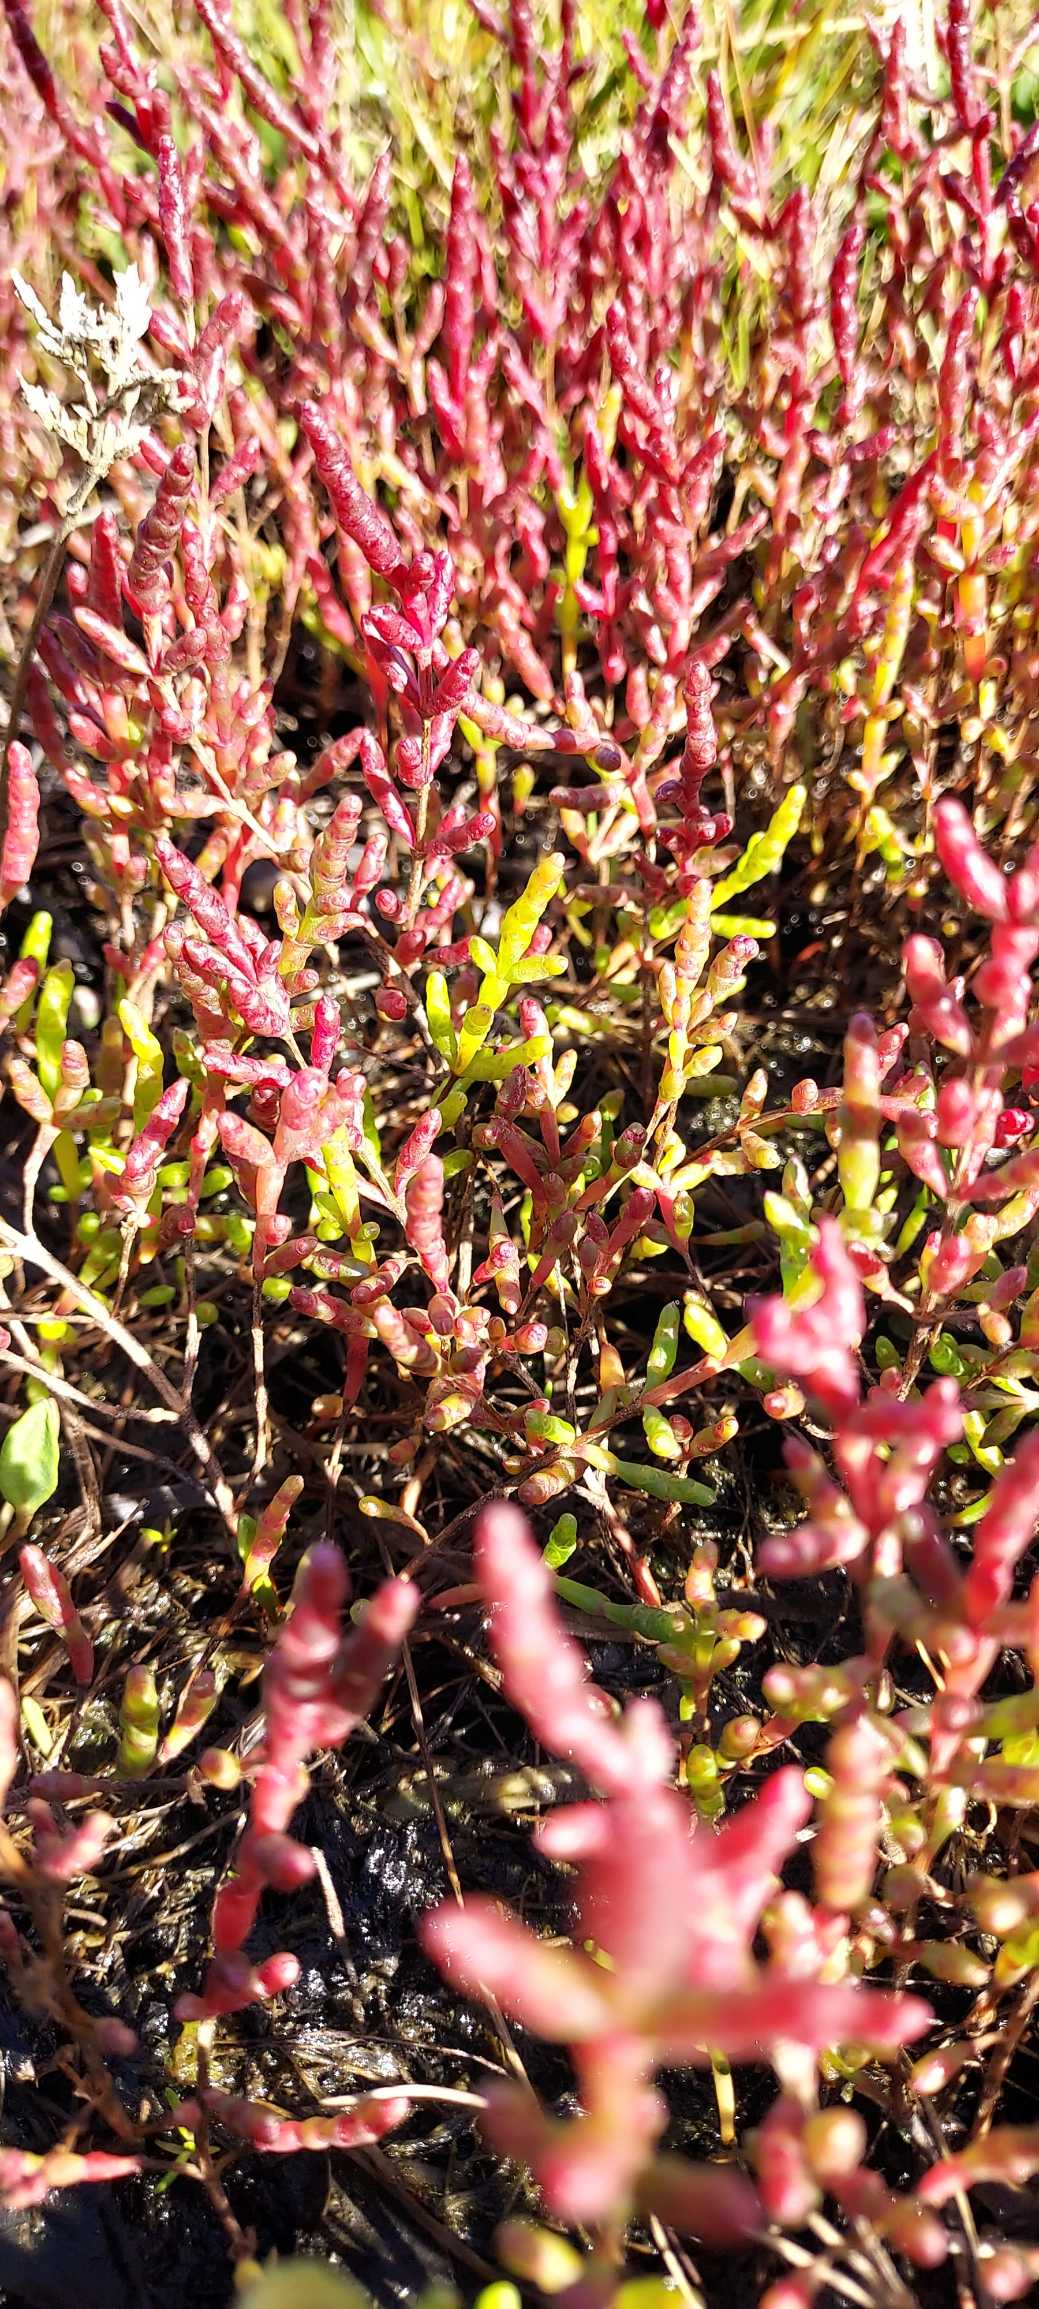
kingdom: Plantae
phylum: Tracheophyta
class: Magnoliopsida
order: Caryophyllales
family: Amaranthaceae
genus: Salicornia
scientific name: Salicornia europaea
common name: Almindelig salturt
